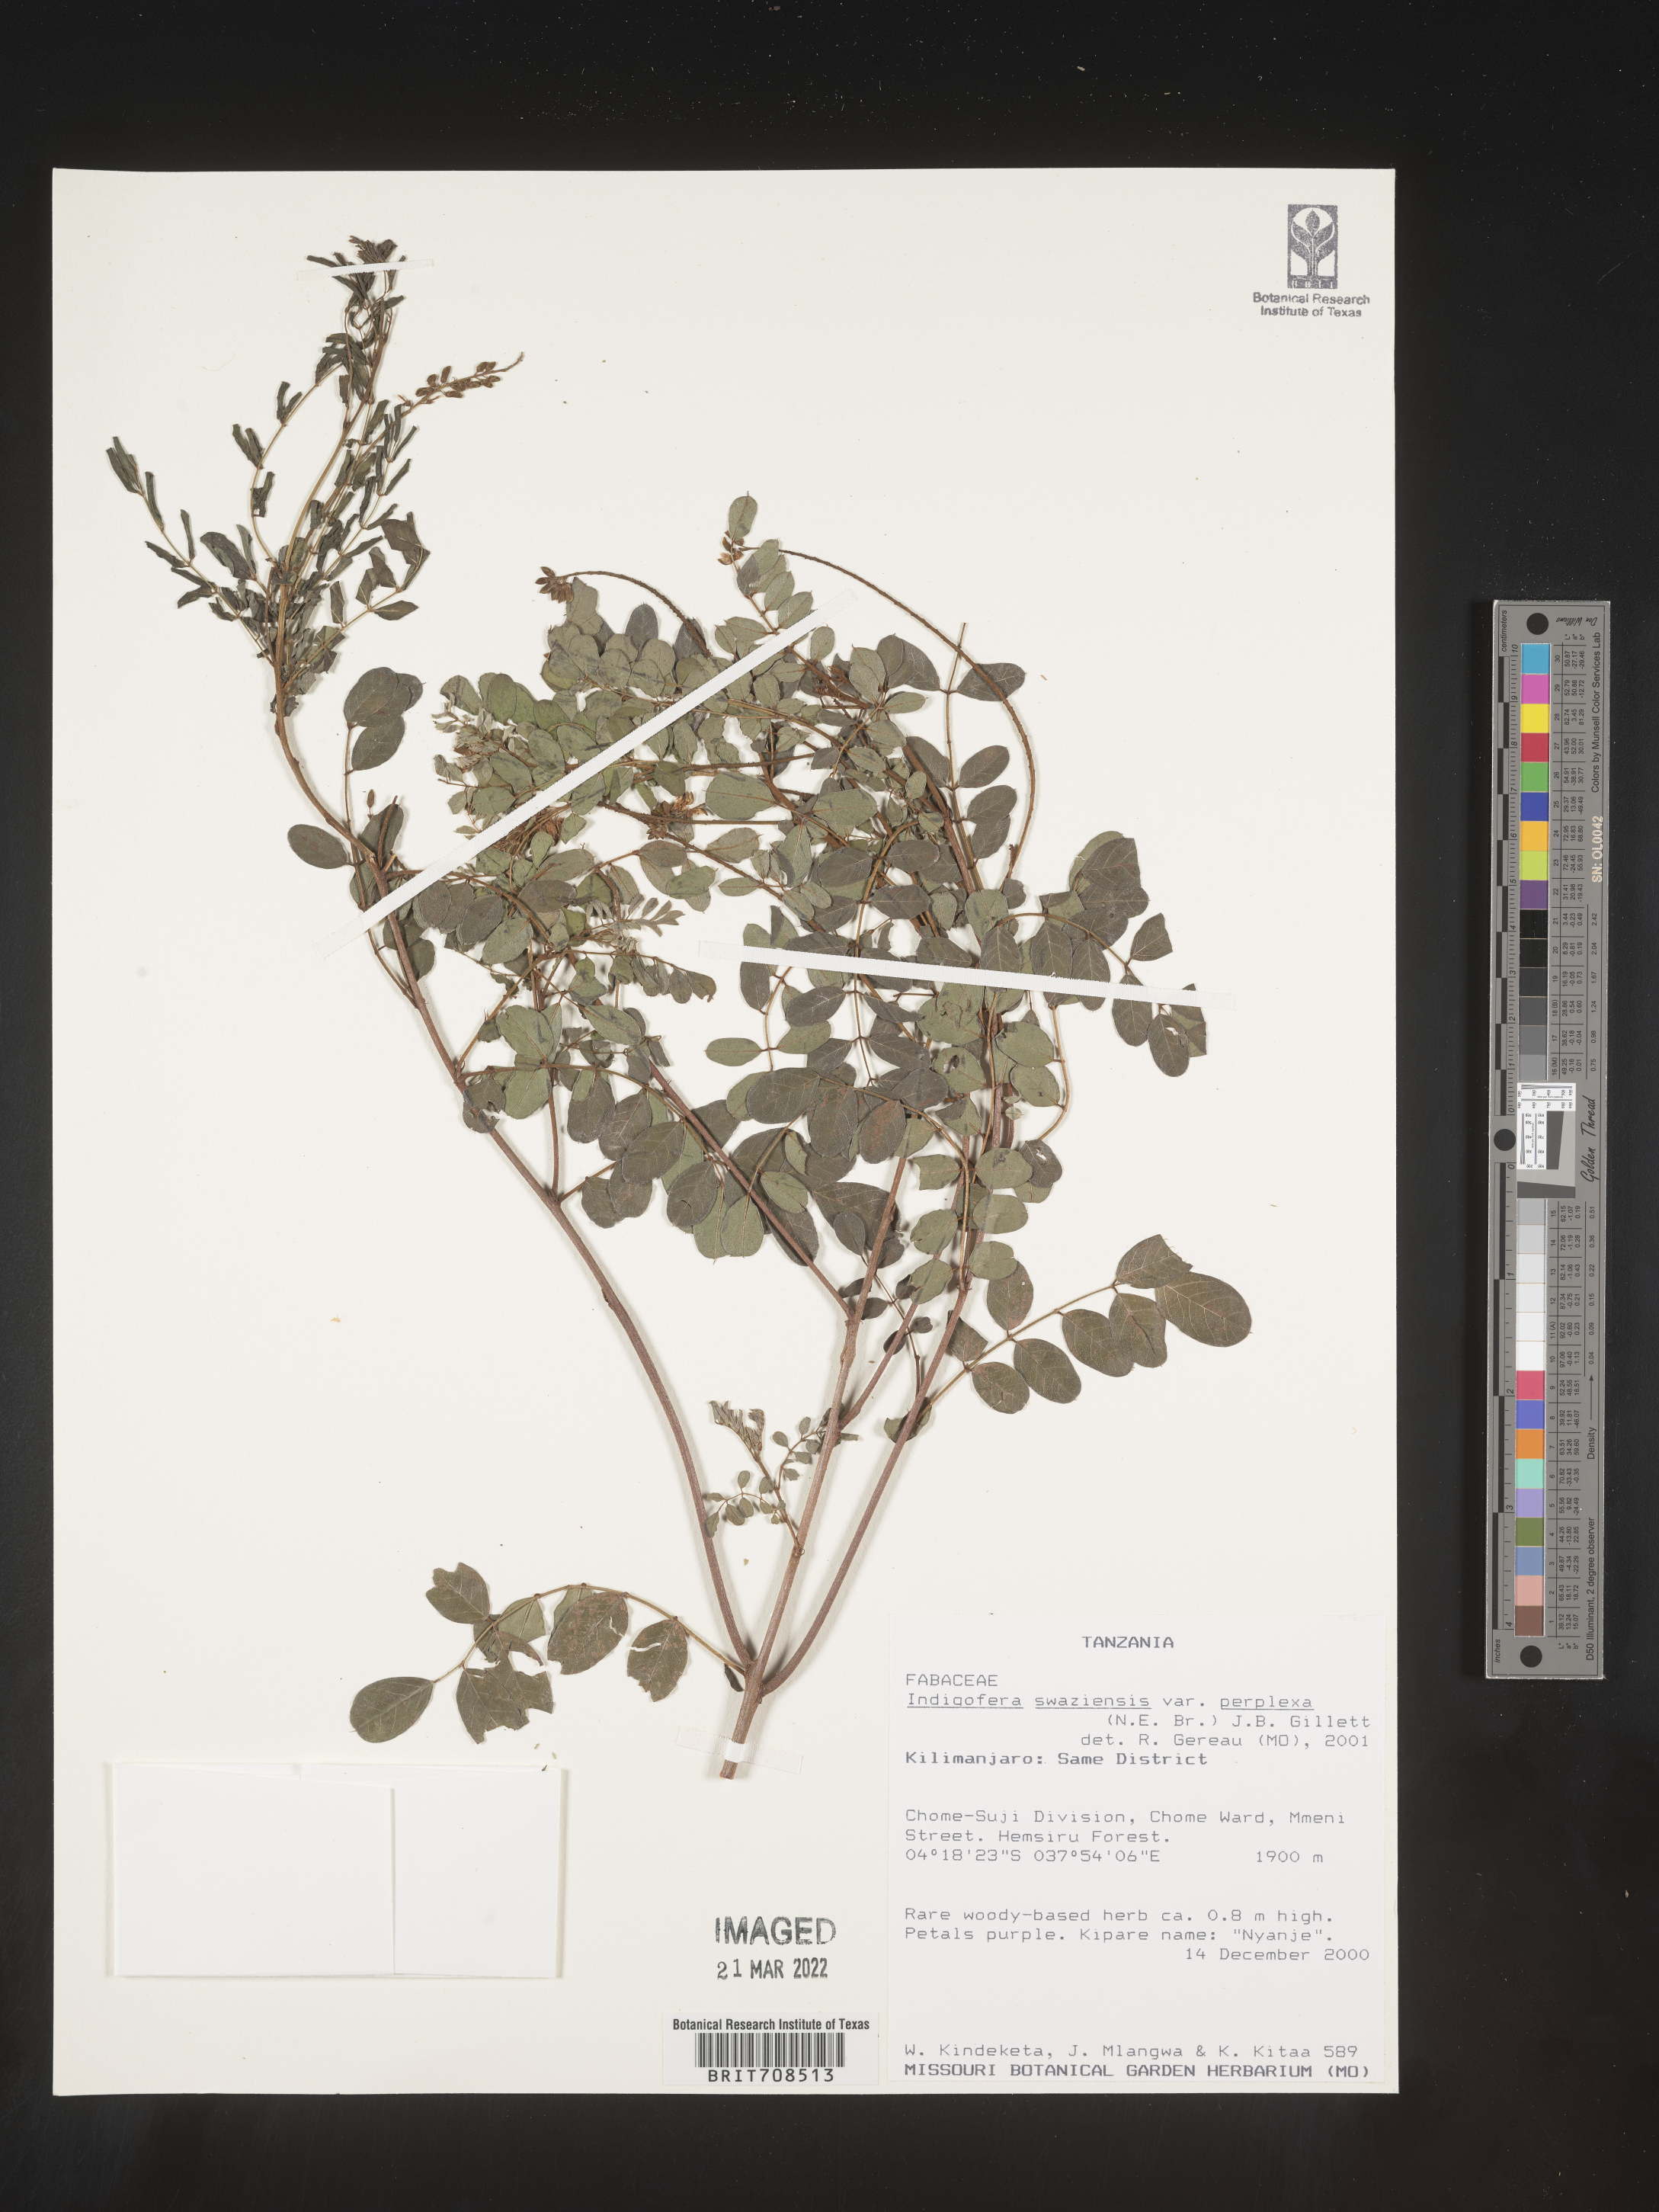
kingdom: Plantae
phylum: Tracheophyta
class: Magnoliopsida
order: Fabales
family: Fabaceae
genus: Indigofera
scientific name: Indigofera
